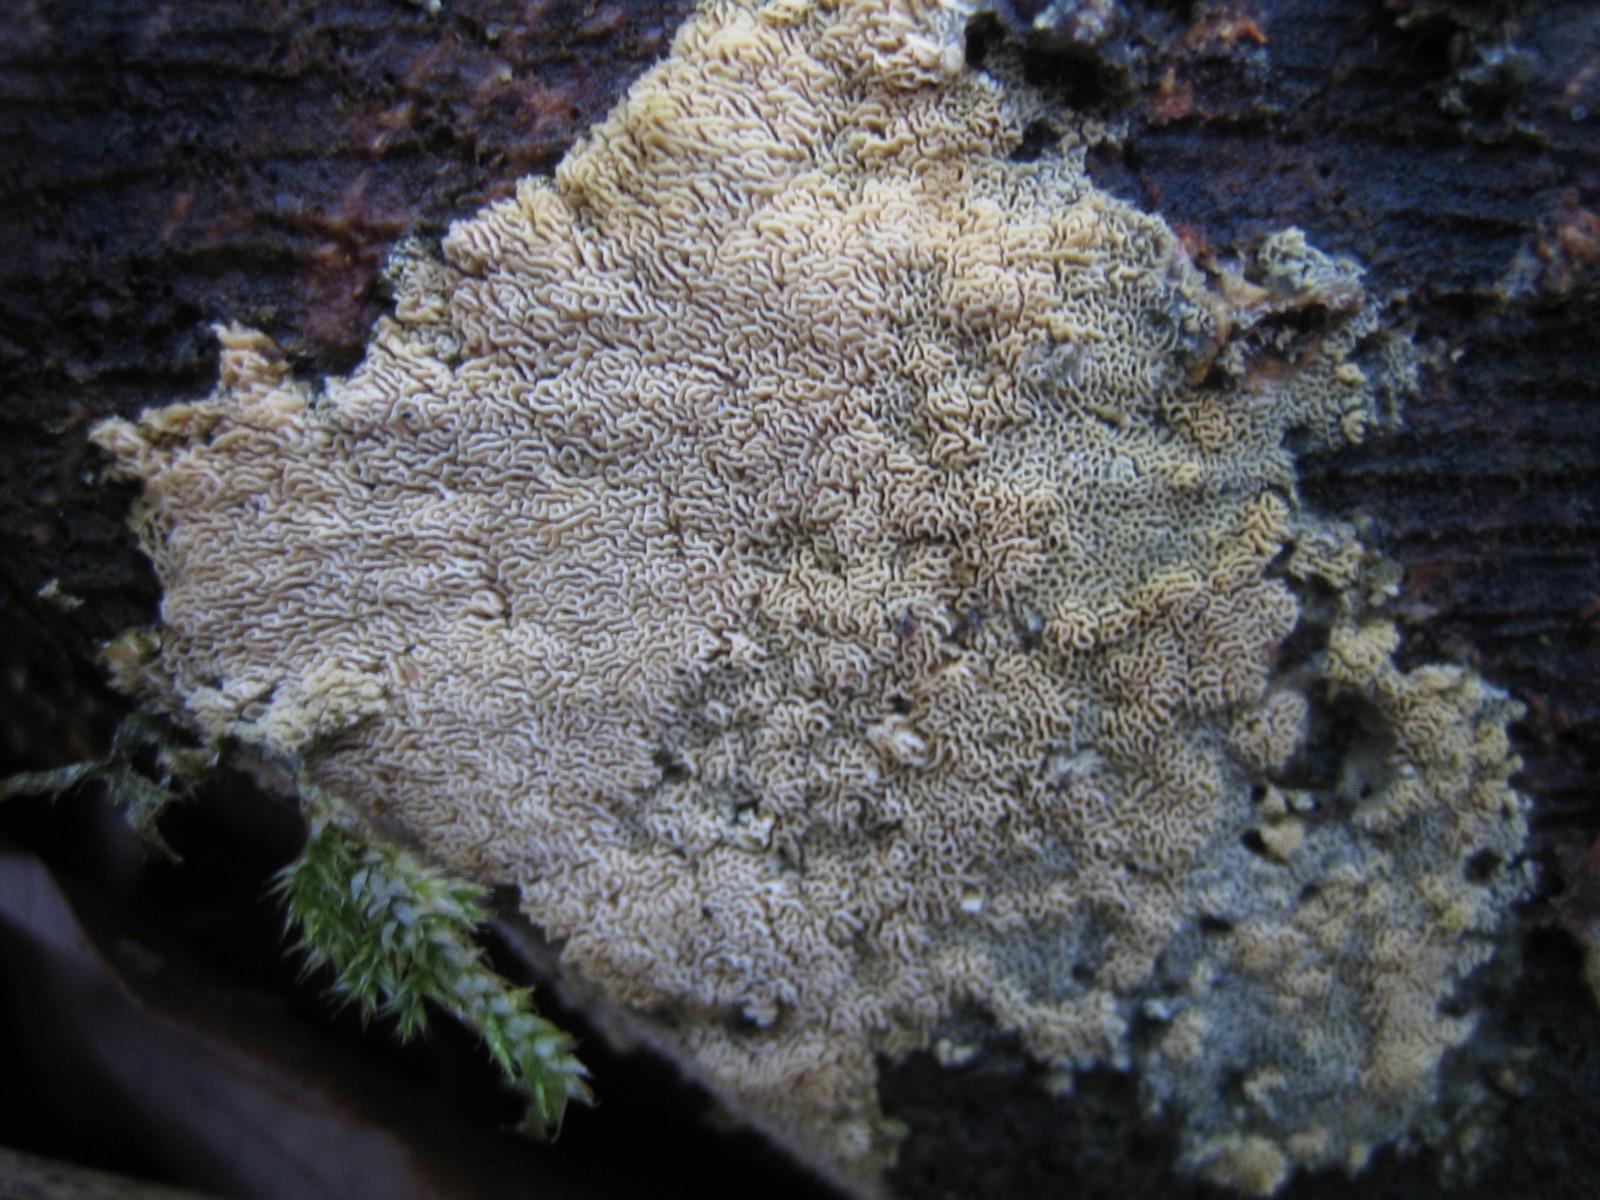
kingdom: Fungi
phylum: Basidiomycota
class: Agaricomycetes
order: Hymenochaetales
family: Schizoporaceae
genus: Xylodon
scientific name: Xylodon subtropicus
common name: labyrint-tandsvamp
